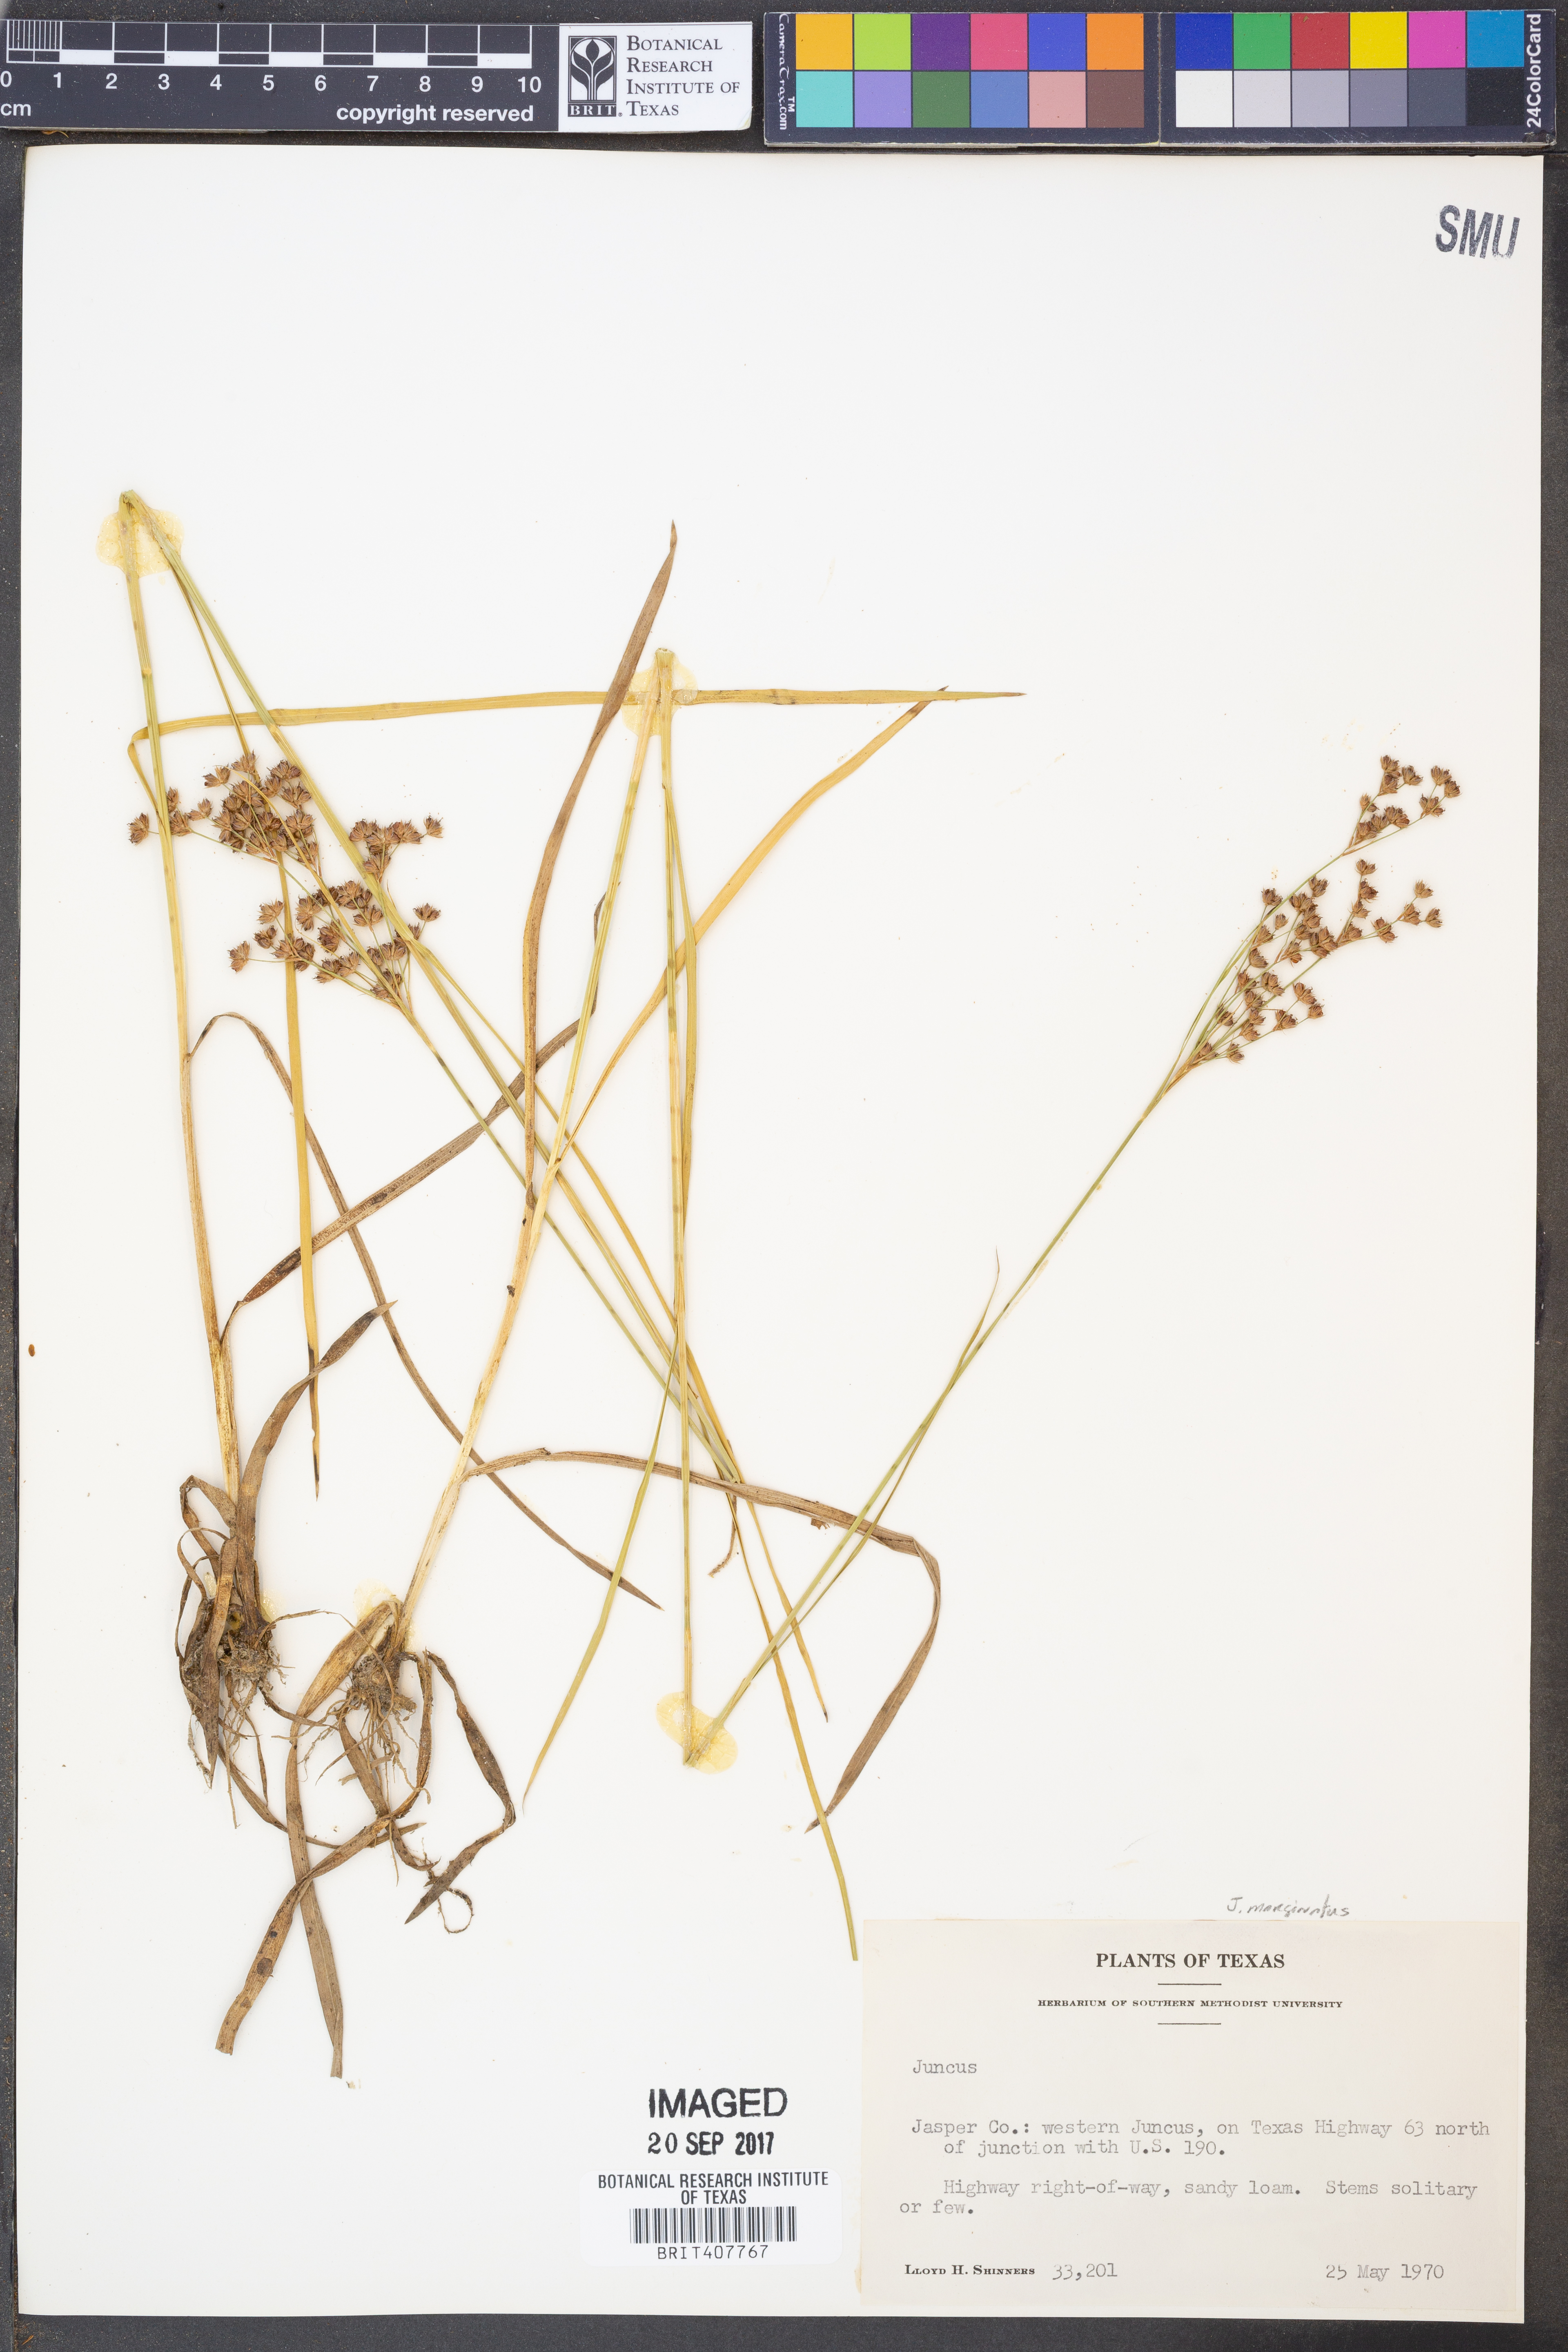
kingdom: Plantae
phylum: Tracheophyta
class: Liliopsida
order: Poales
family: Juncaceae
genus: Juncus
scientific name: Juncus marginatus
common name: Grass-leaf rush
